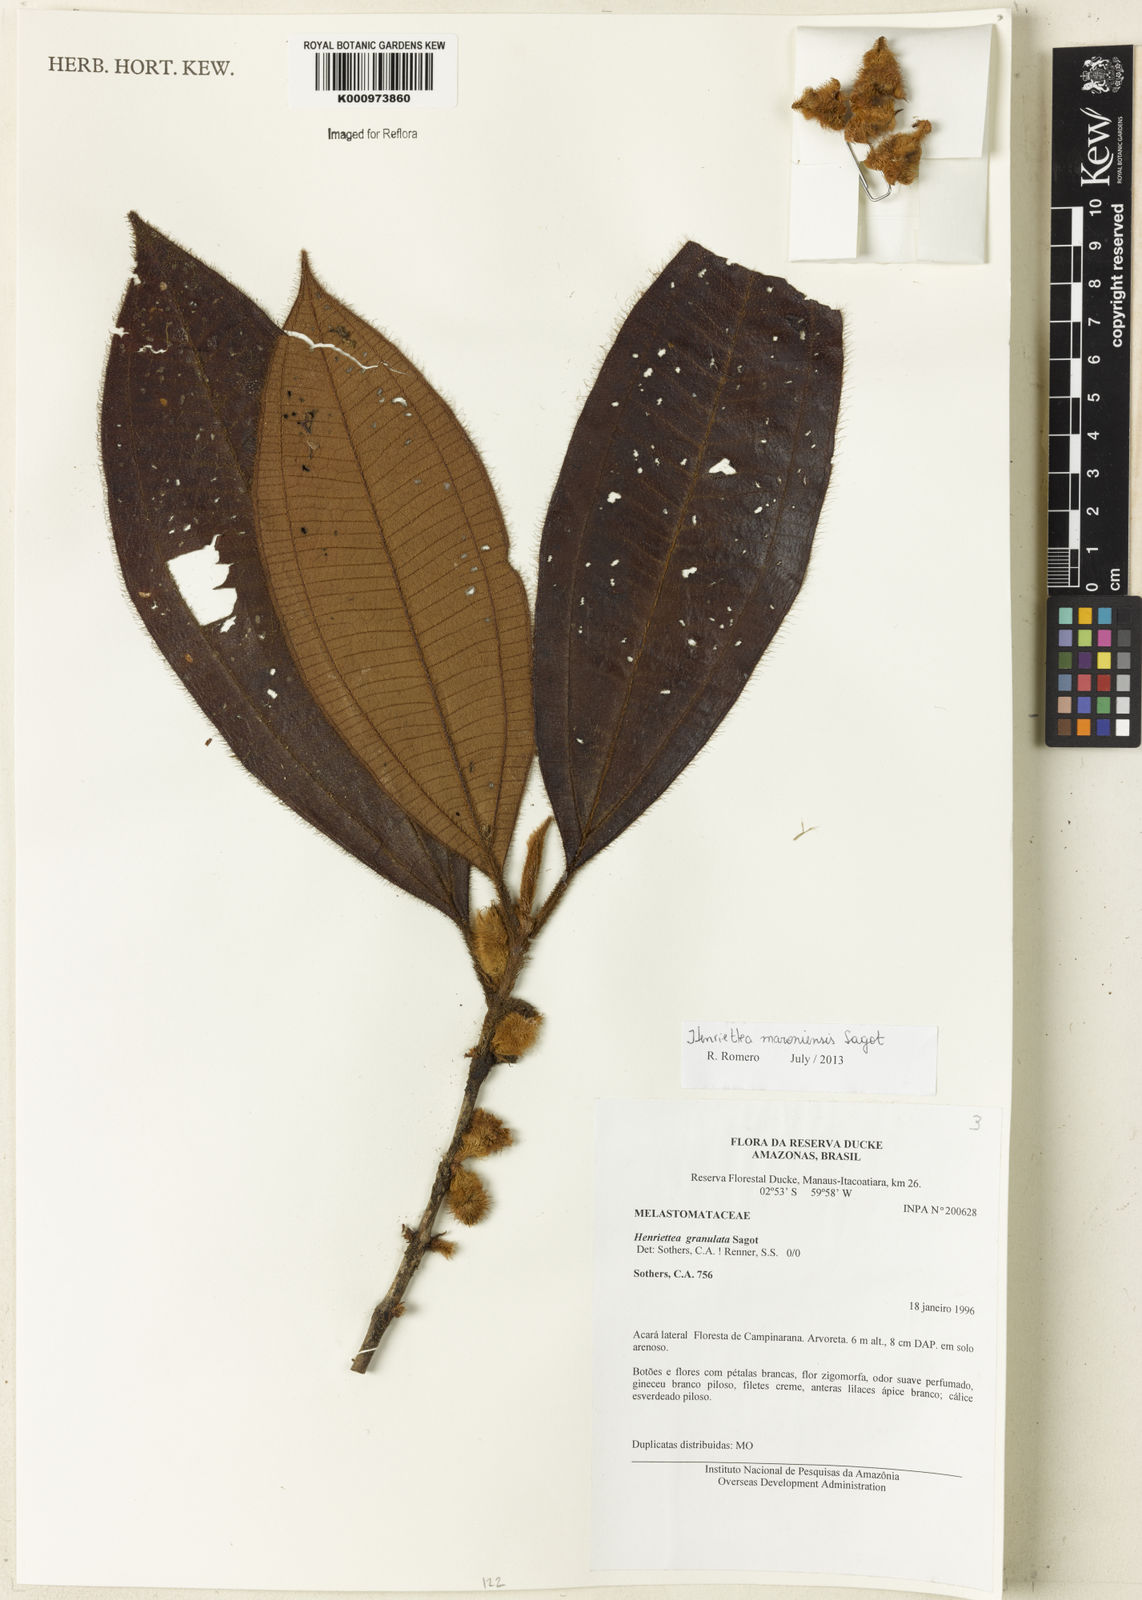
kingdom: Plantae
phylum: Tracheophyta
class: Magnoliopsida
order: Myrtales
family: Melastomataceae
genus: Henriettea
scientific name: Henriettea maroniensis
